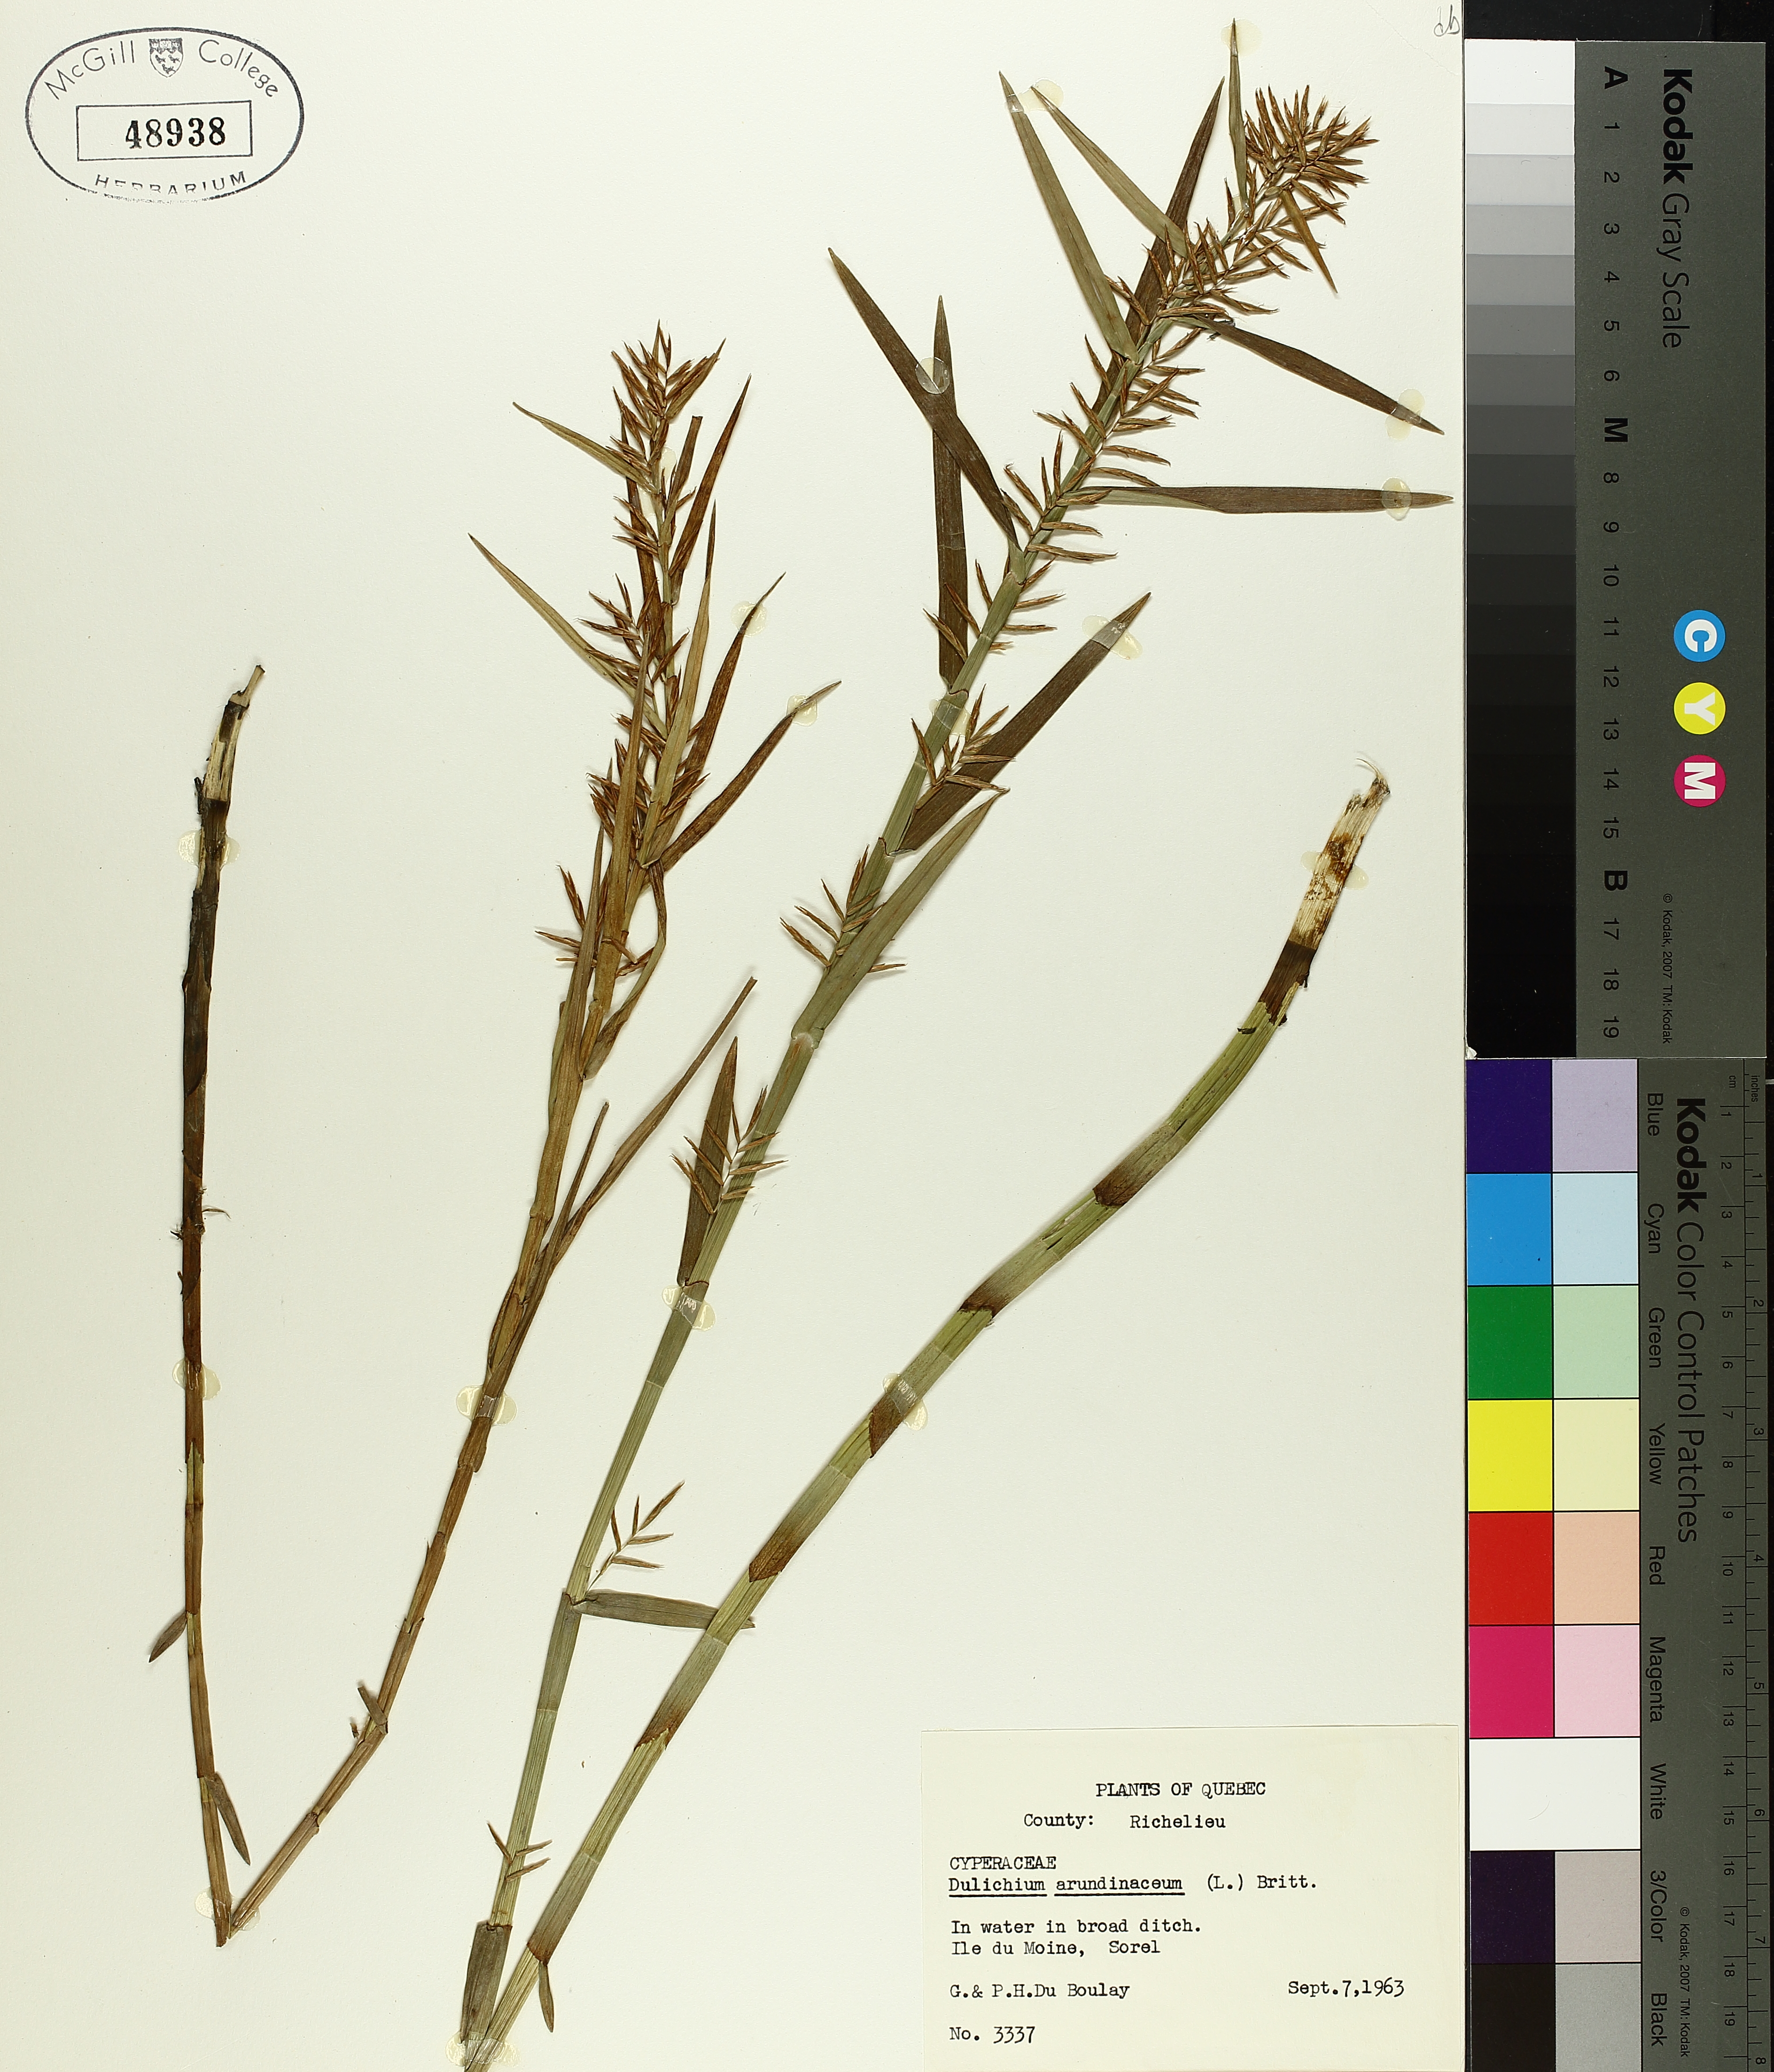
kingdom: Plantae
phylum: Tracheophyta
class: Liliopsida
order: Poales
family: Cyperaceae
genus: Dulichium
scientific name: Dulichium arundinaceum
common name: Three-way sedge
